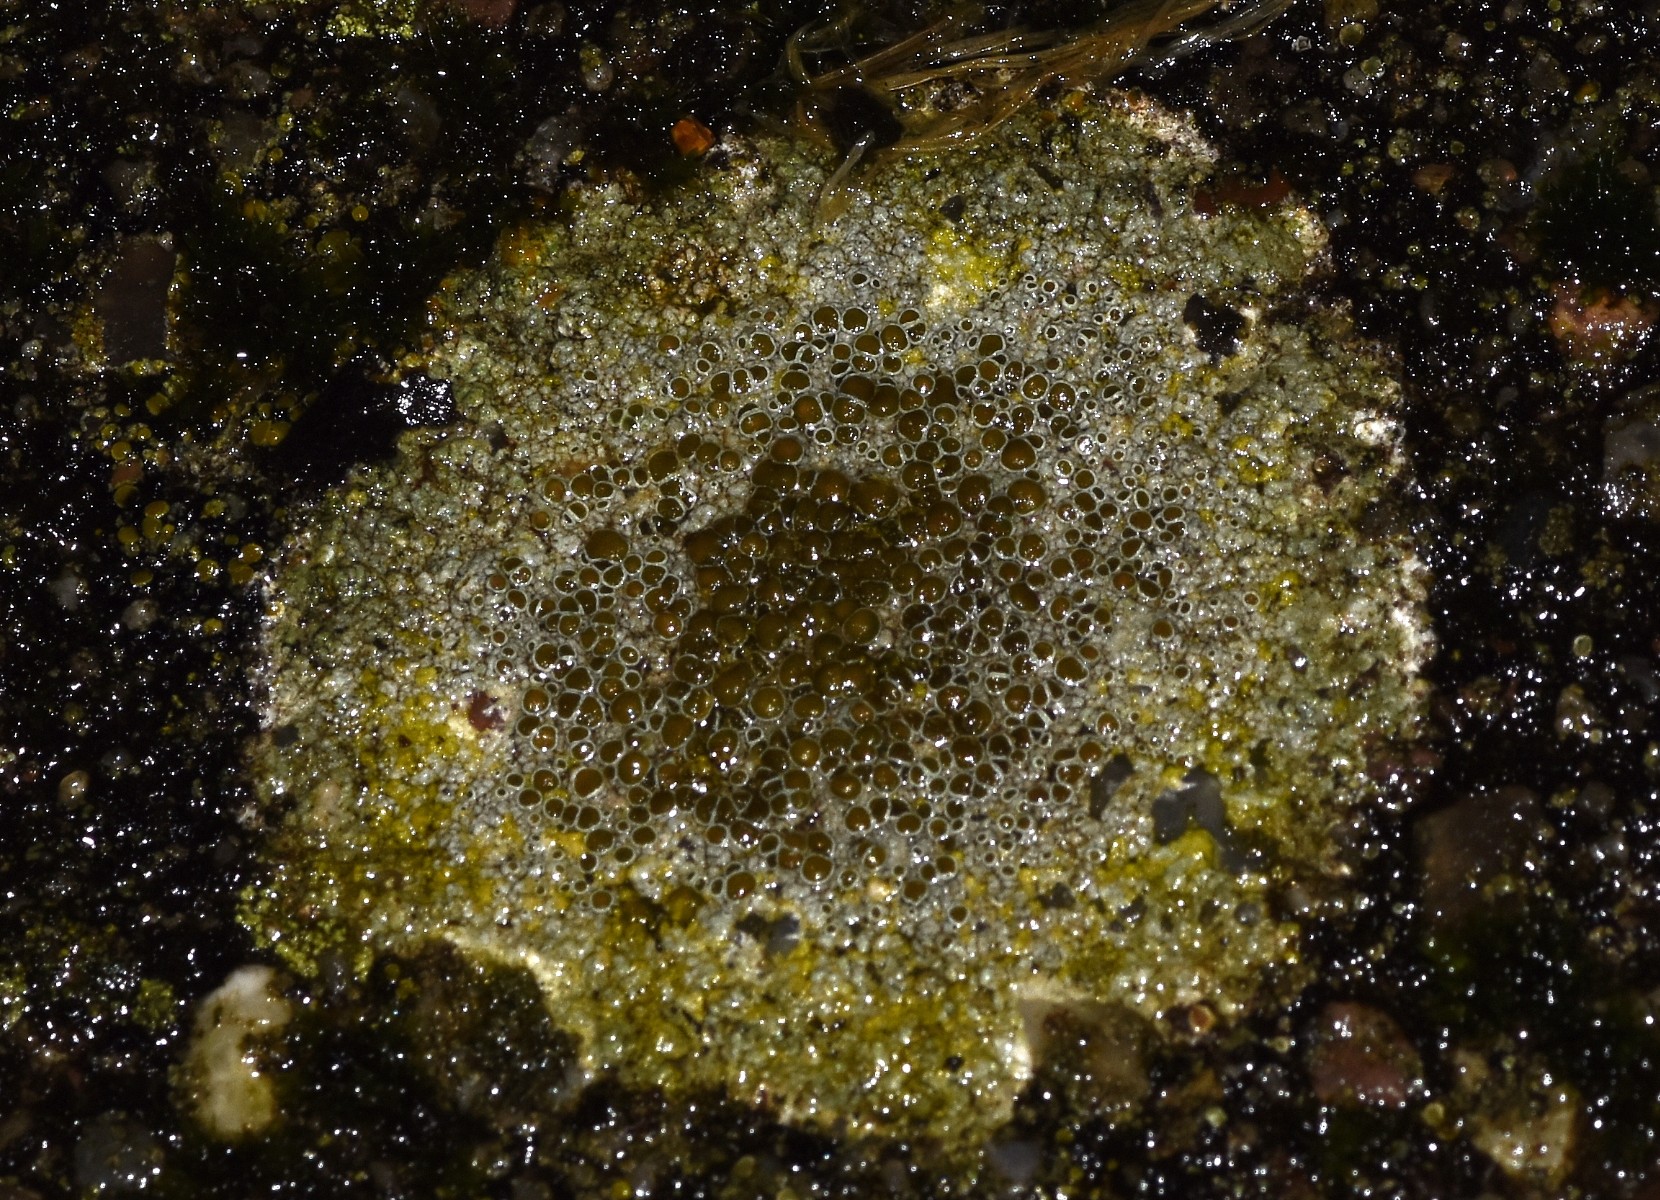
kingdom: Fungi
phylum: Ascomycota
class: Lecanoromycetes
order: Lecanorales
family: Lecanoraceae
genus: Lecanora
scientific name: Lecanora campestris
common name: mur-kantskivelav
